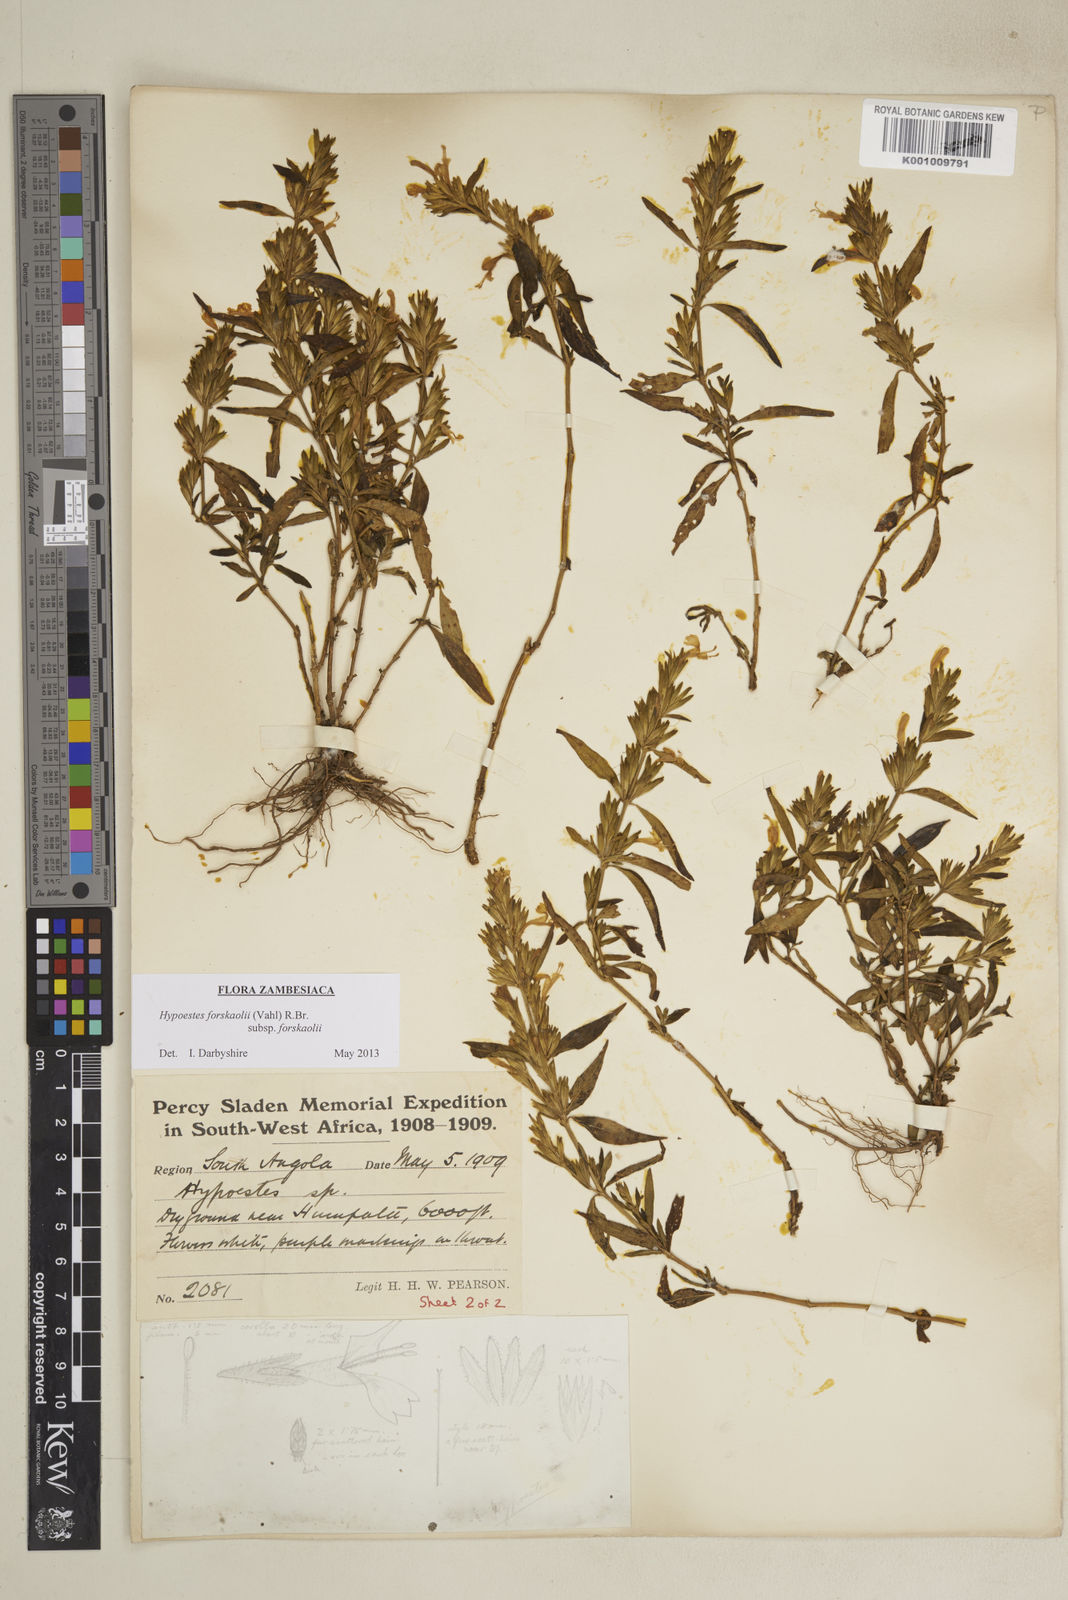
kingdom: Plantae
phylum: Tracheophyta
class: Magnoliopsida
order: Lamiales
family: Acanthaceae
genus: Hypoestes
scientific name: Hypoestes forskaolii
